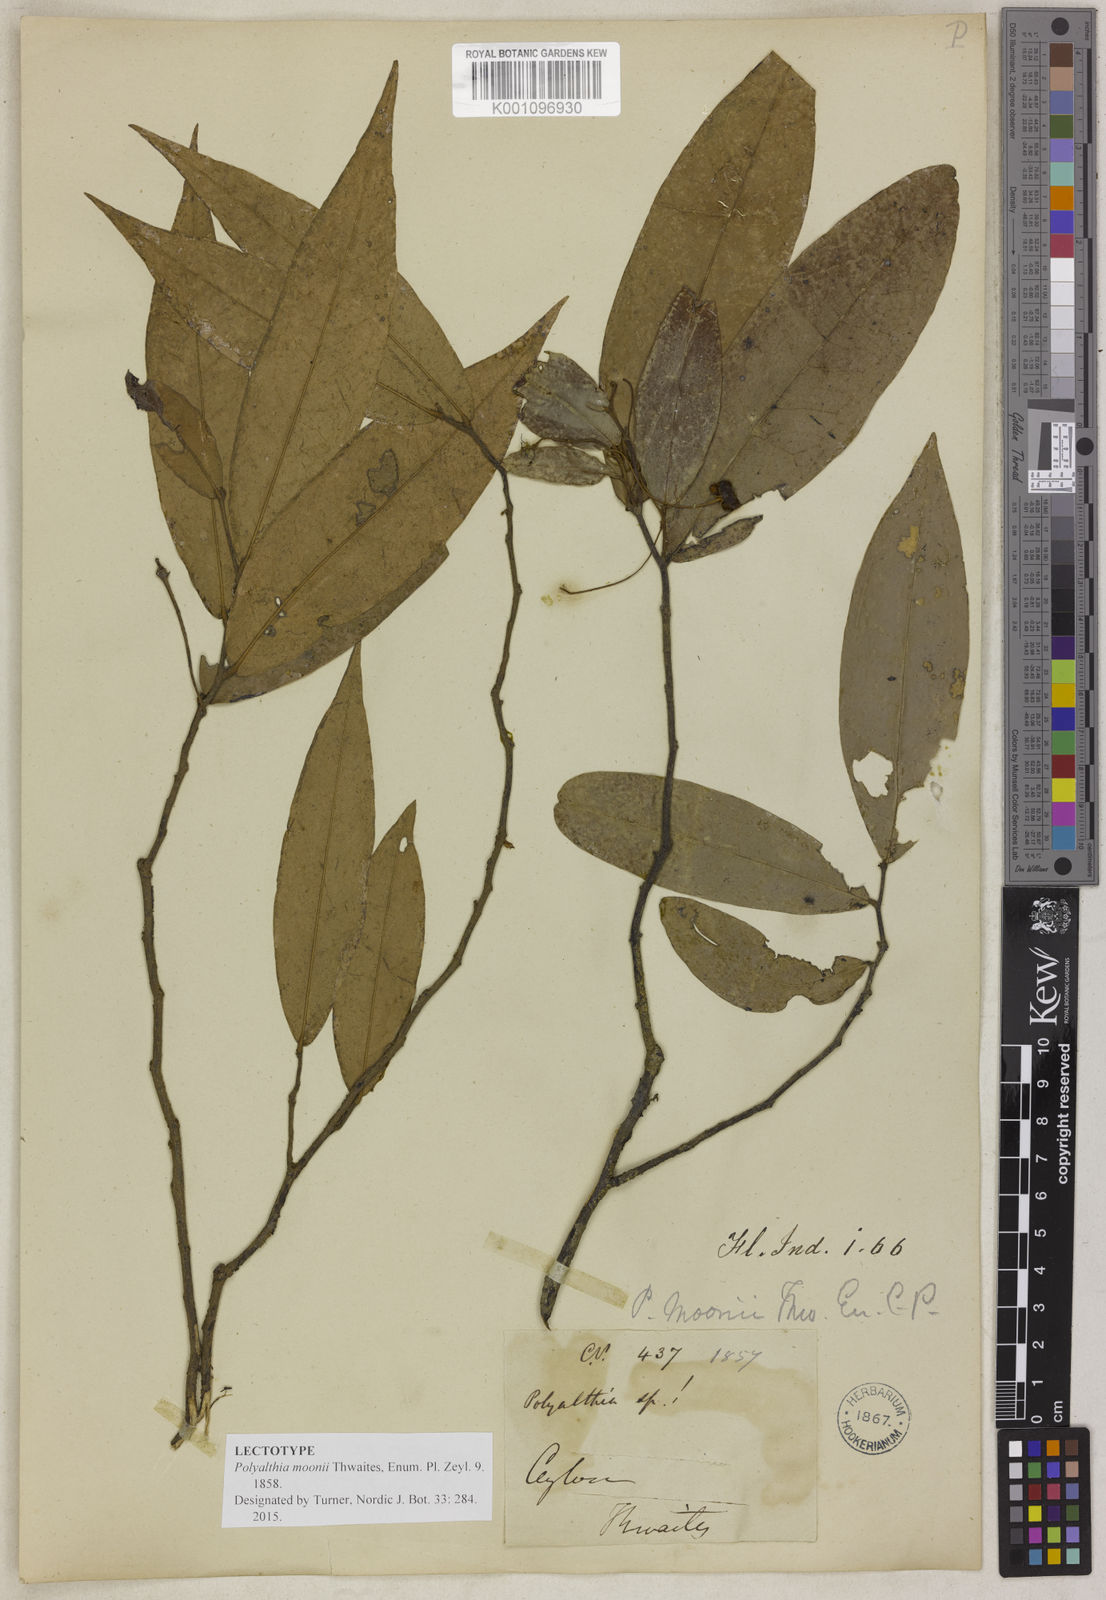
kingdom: Plantae
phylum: Tracheophyta
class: Magnoliopsida
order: Magnoliales
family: Annonaceae
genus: Polyalthia
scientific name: Polyalthia moonii
